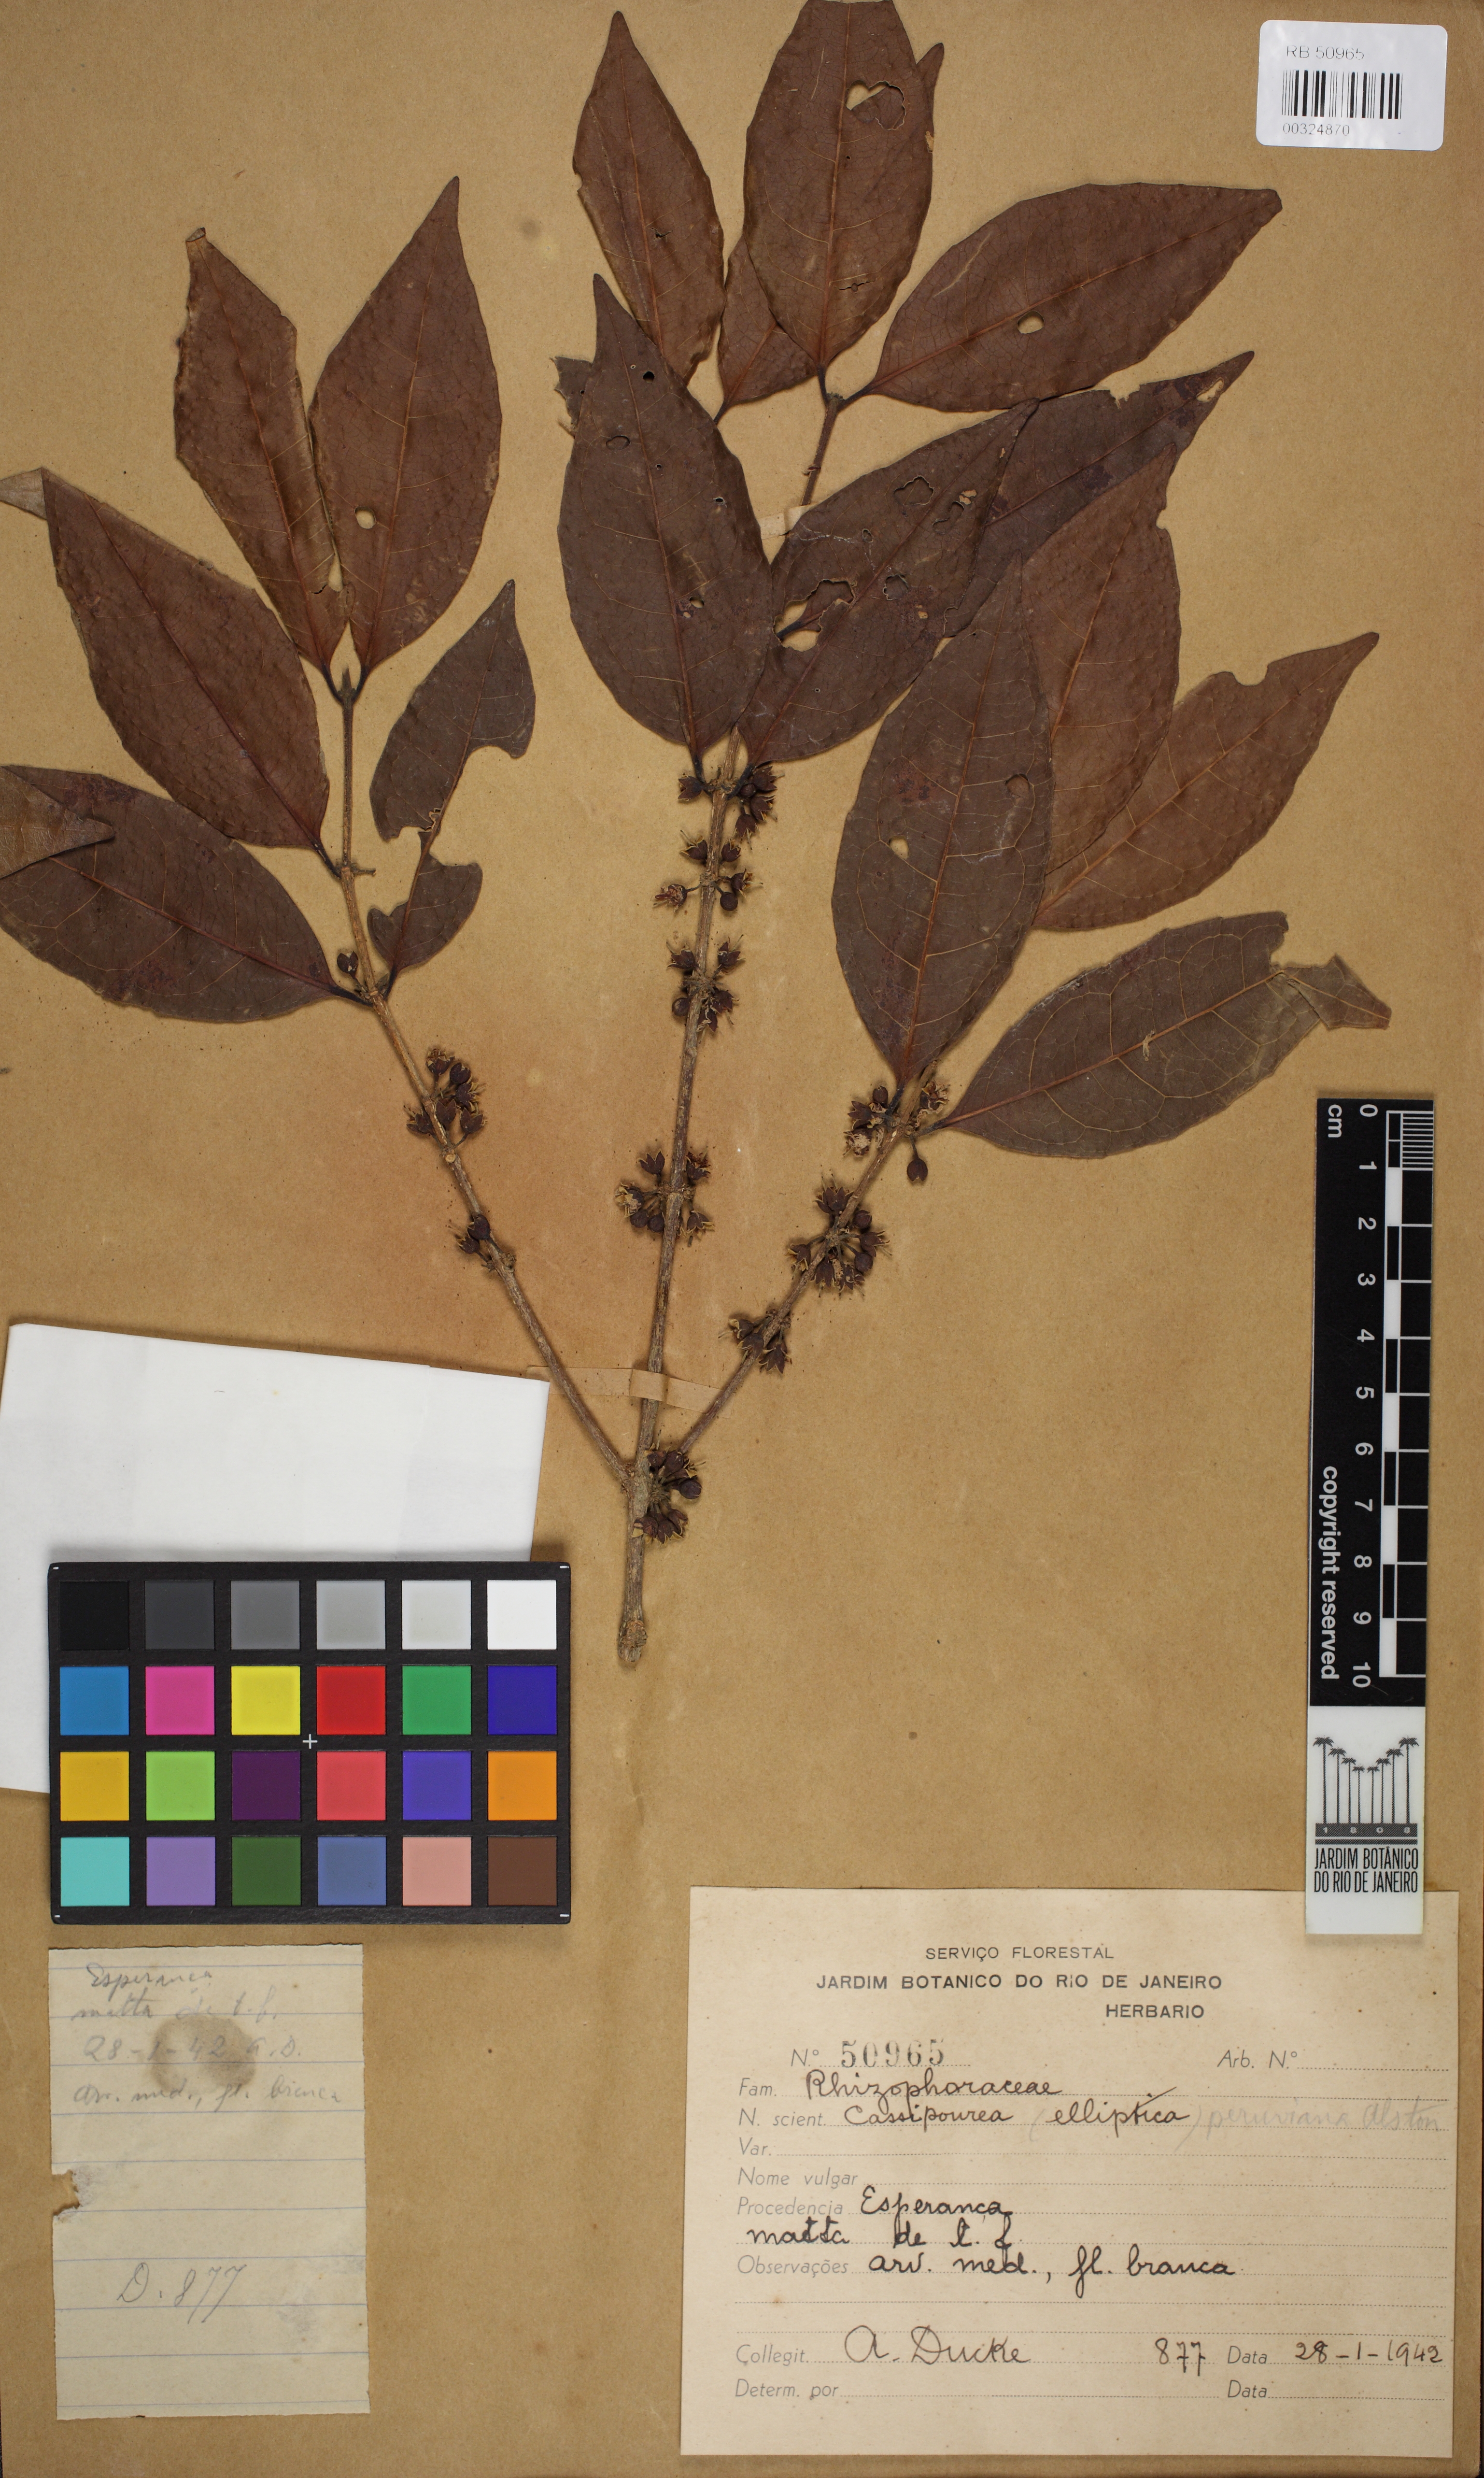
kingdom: Plantae
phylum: Tracheophyta
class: Magnoliopsida
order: Malpighiales
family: Rhizophoraceae
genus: Cassipourea
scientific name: Cassipourea elliptica
